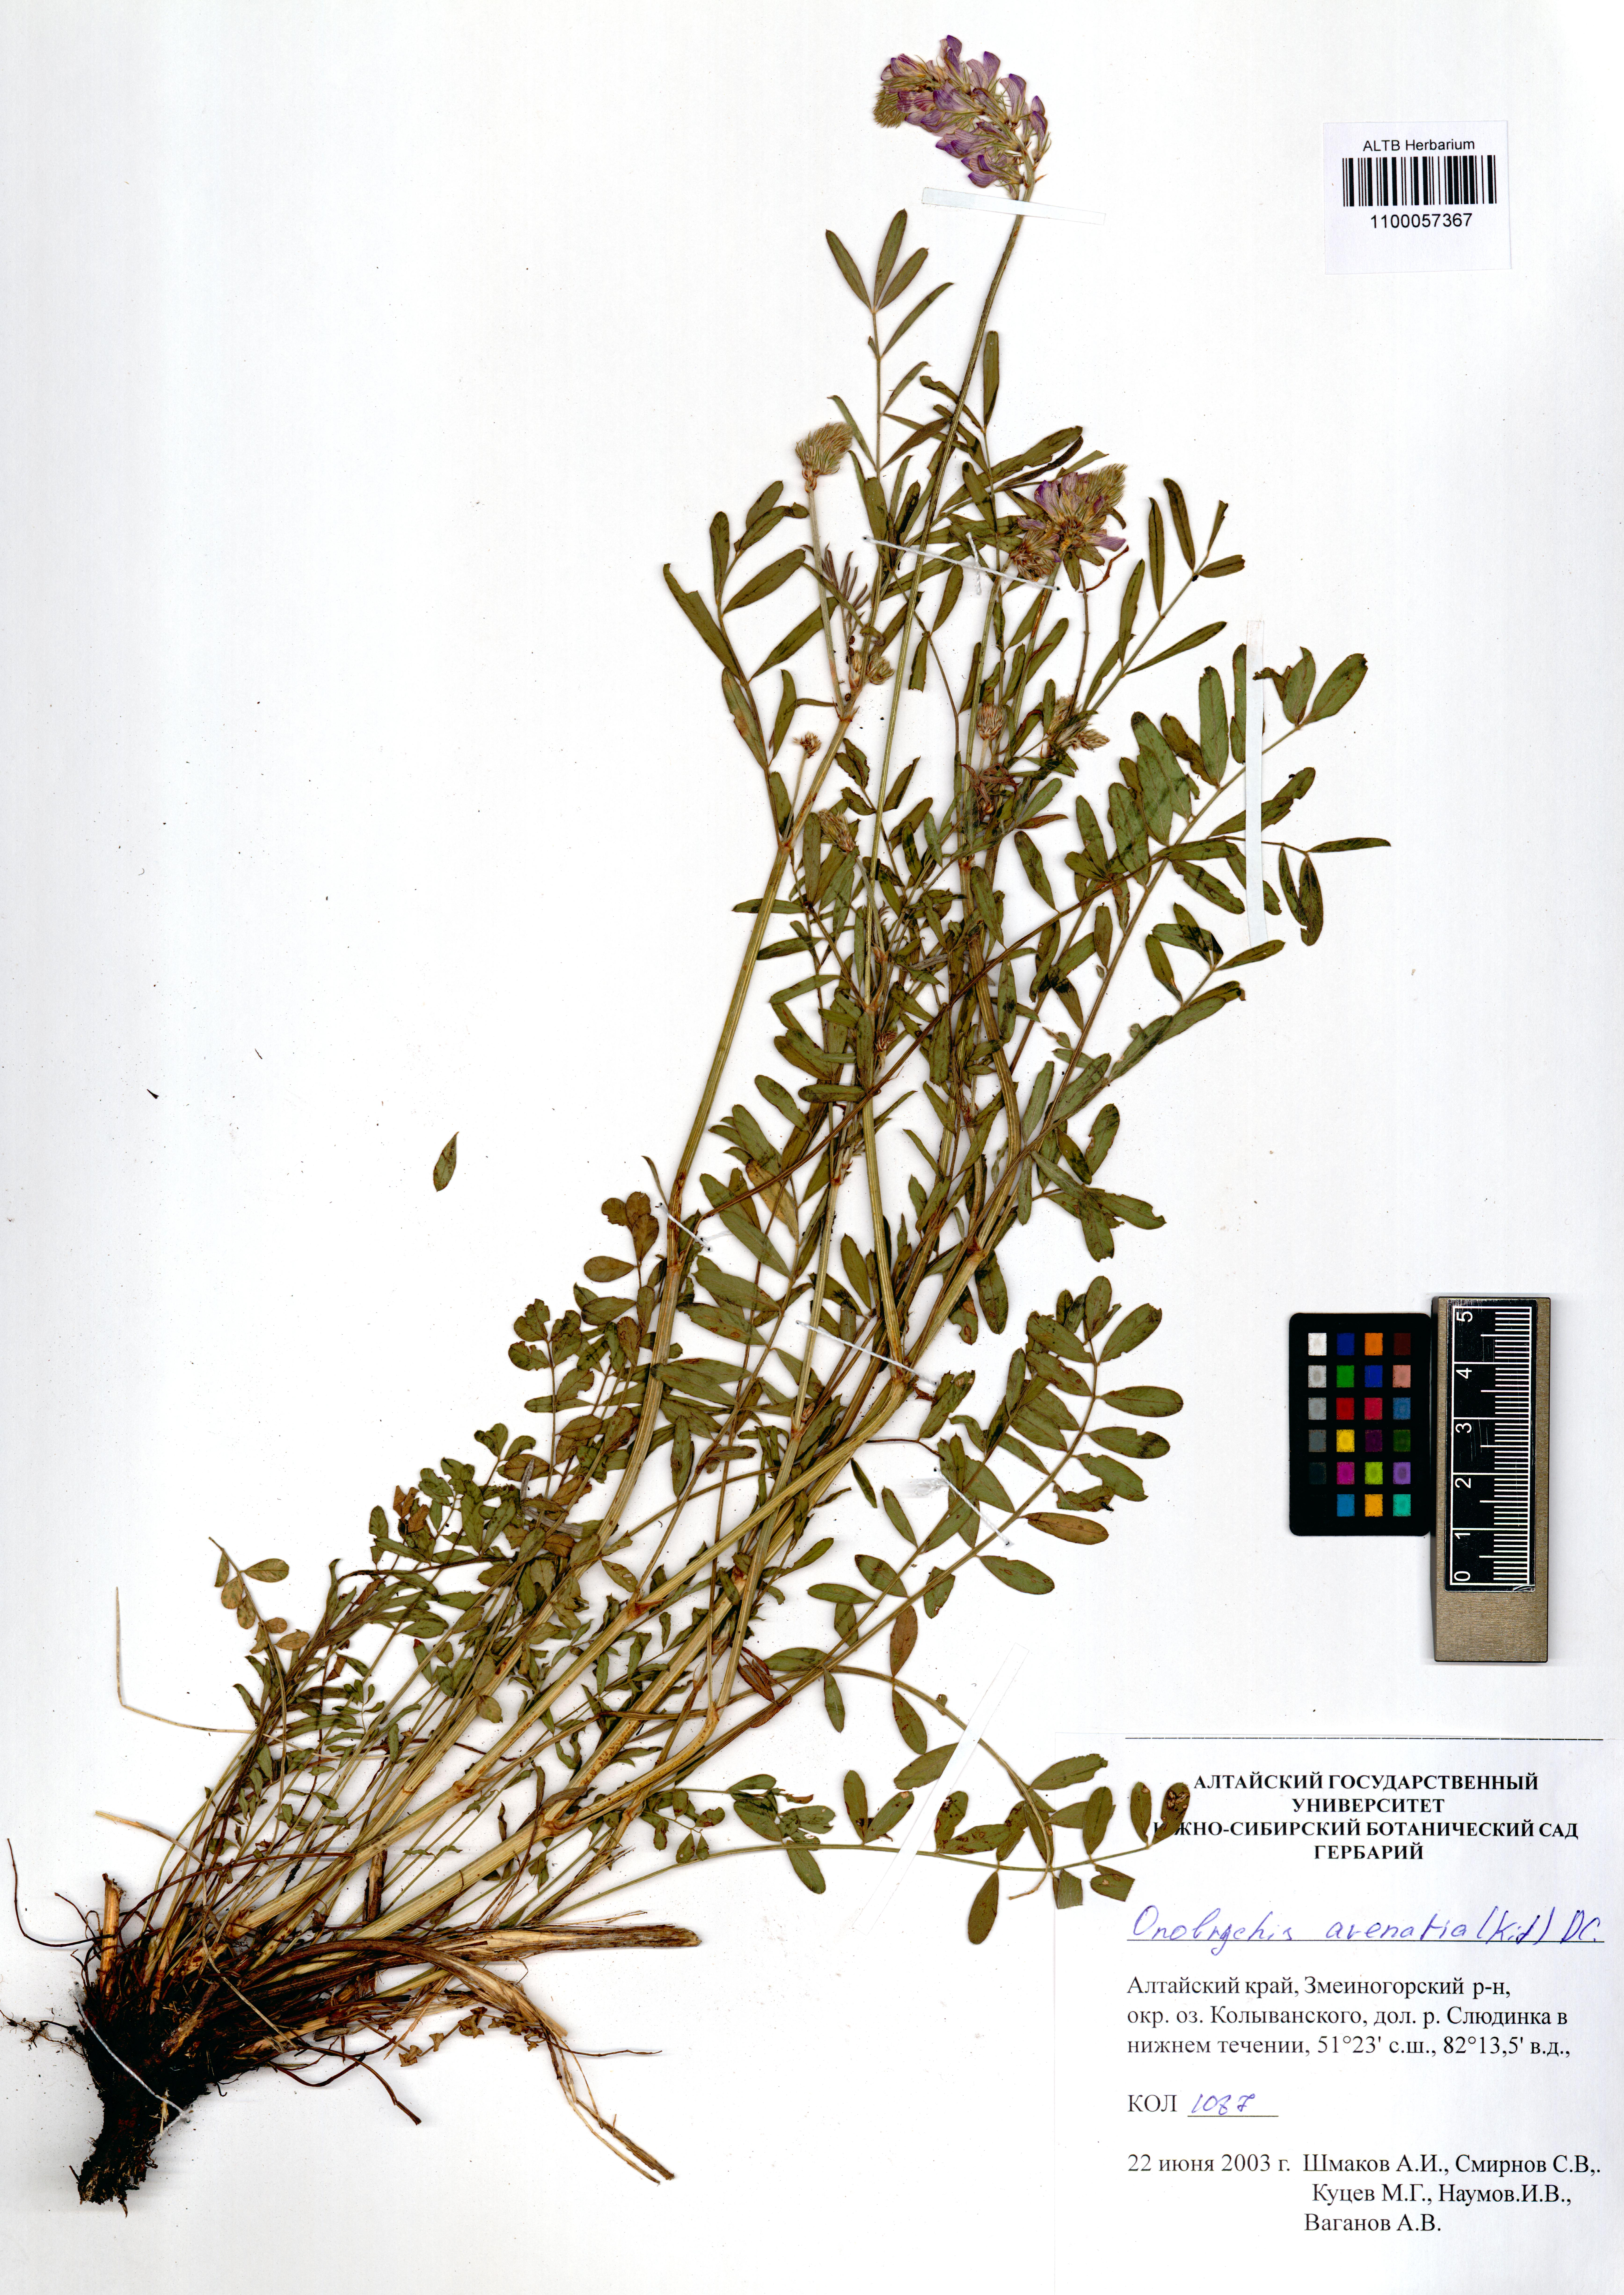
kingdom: Plantae
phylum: Tracheophyta
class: Magnoliopsida
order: Fabales
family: Fabaceae
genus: Onobrychis
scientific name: Onobrychis arenaria
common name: Sand esparcet
